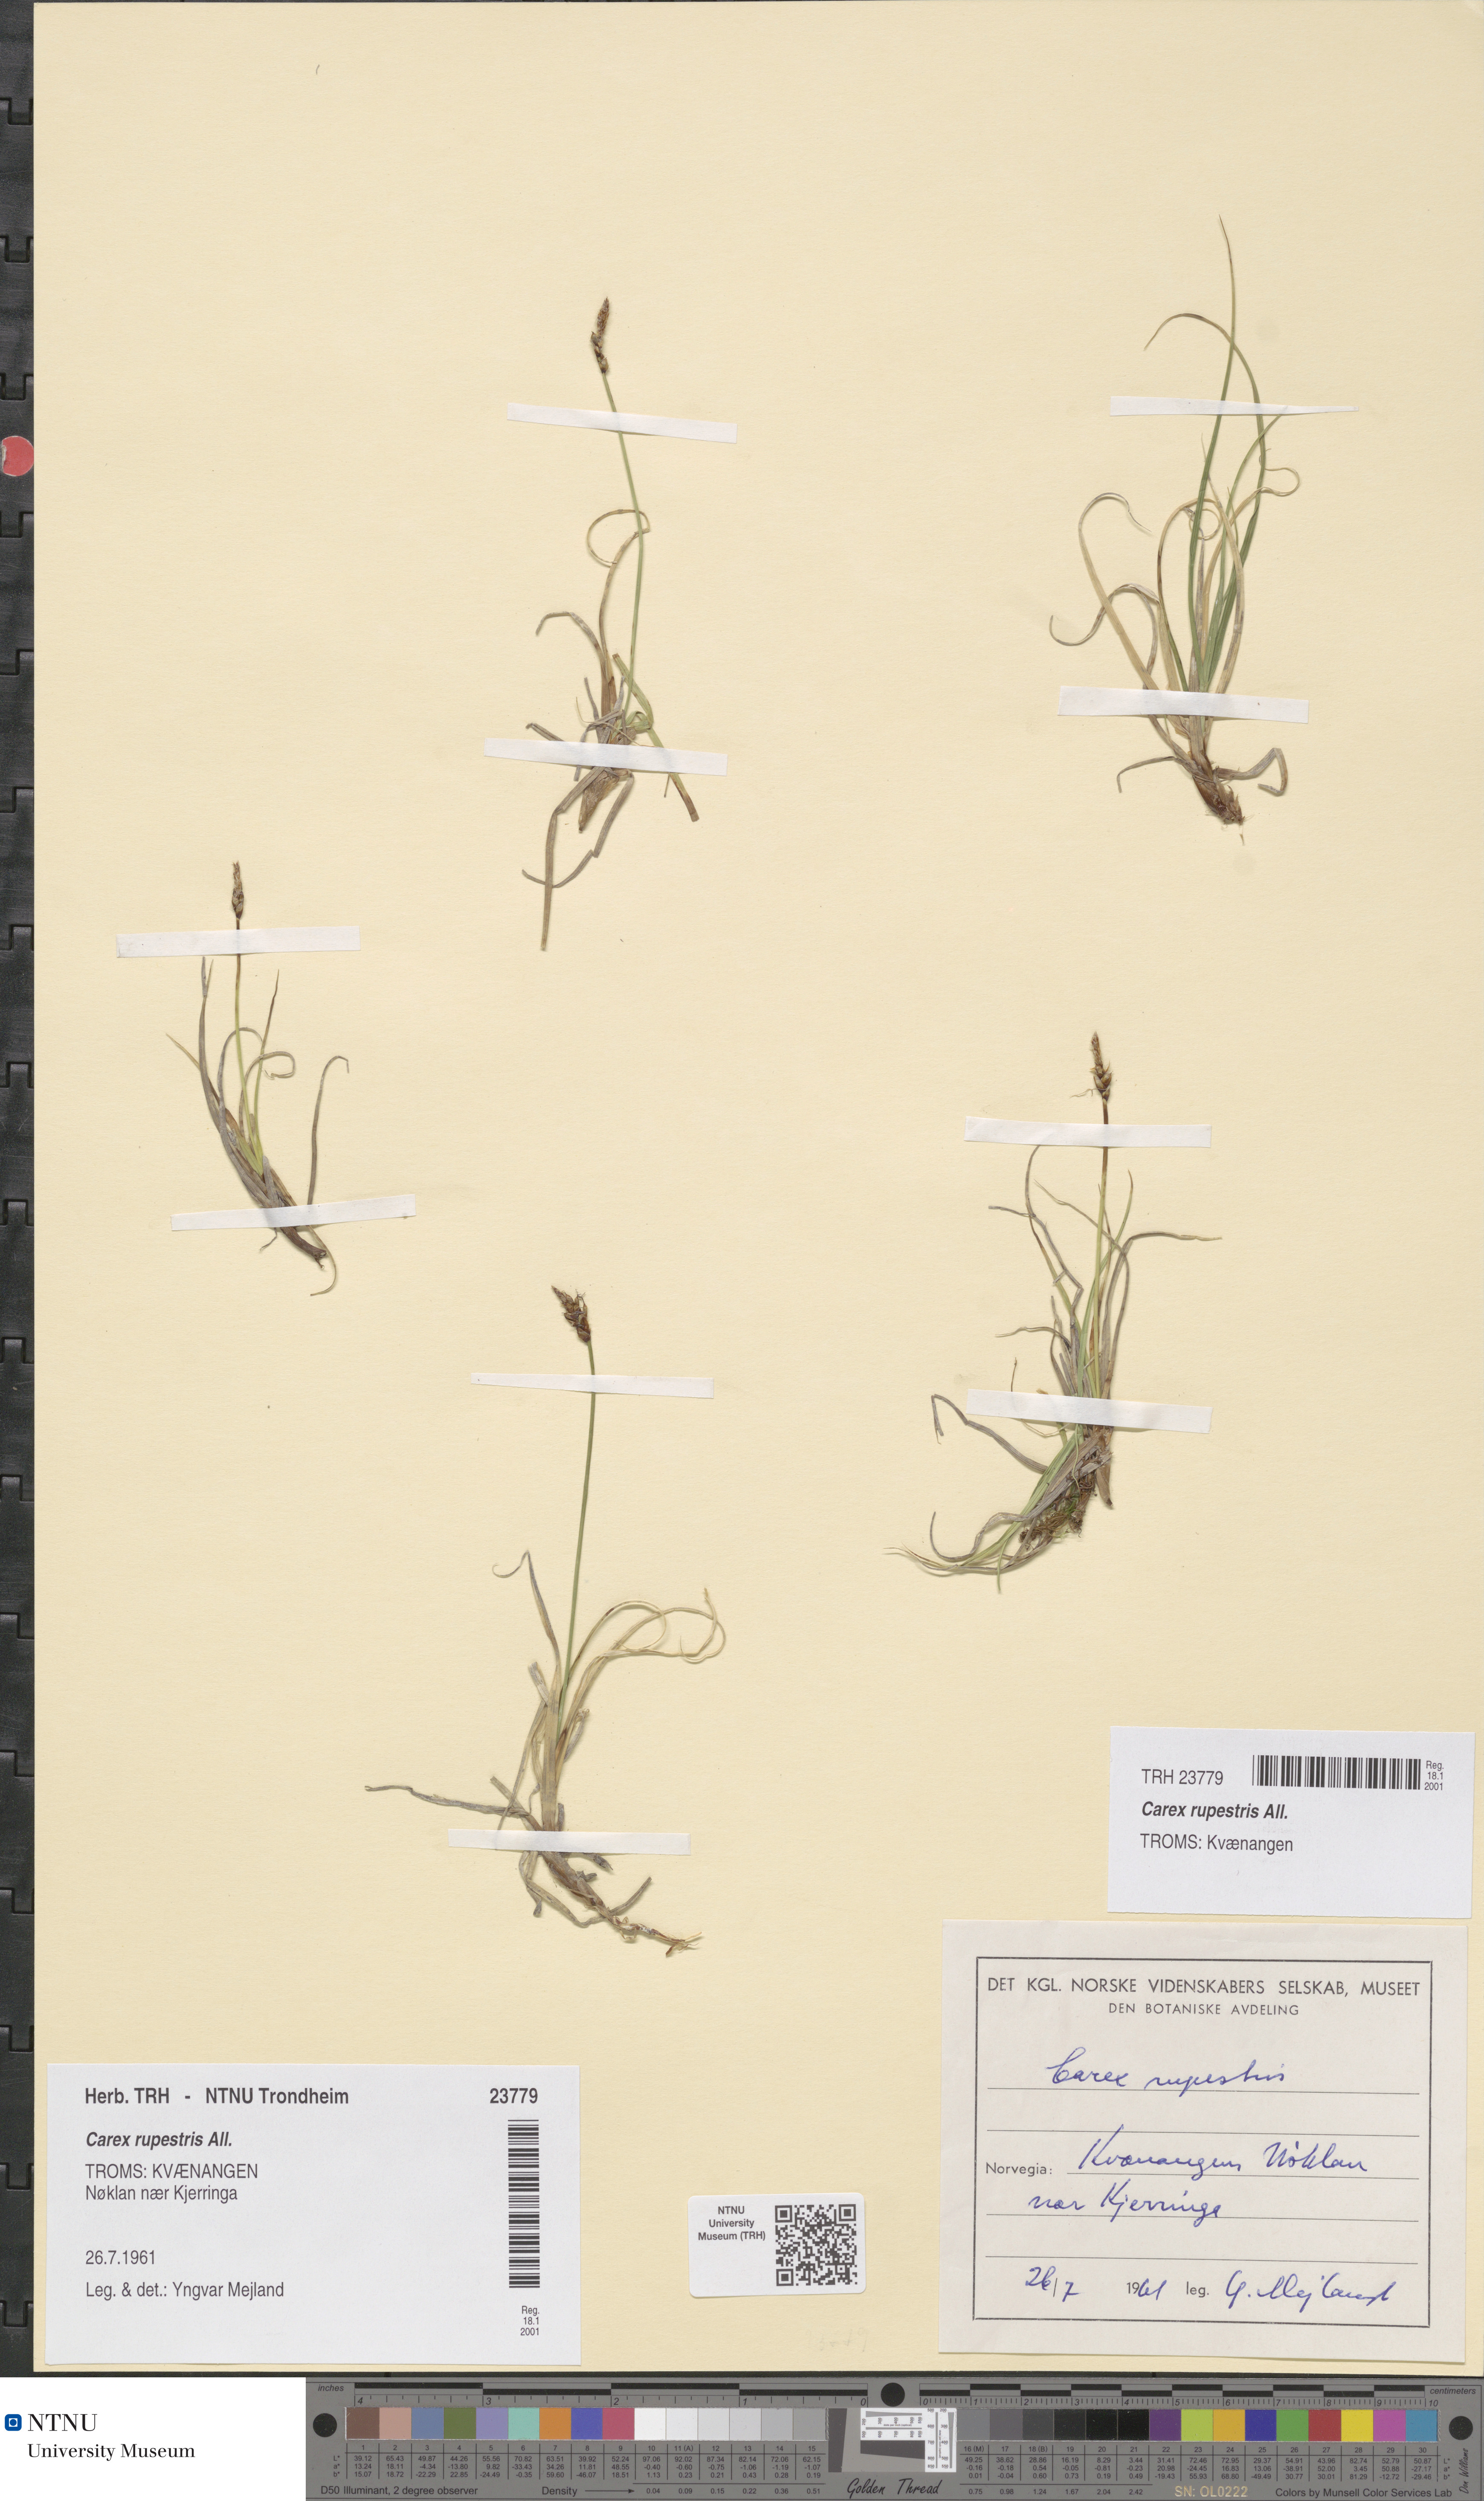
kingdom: Plantae
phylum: Tracheophyta
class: Liliopsida
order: Poales
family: Cyperaceae
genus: Carex
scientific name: Carex rupestris
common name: Rock sedge
